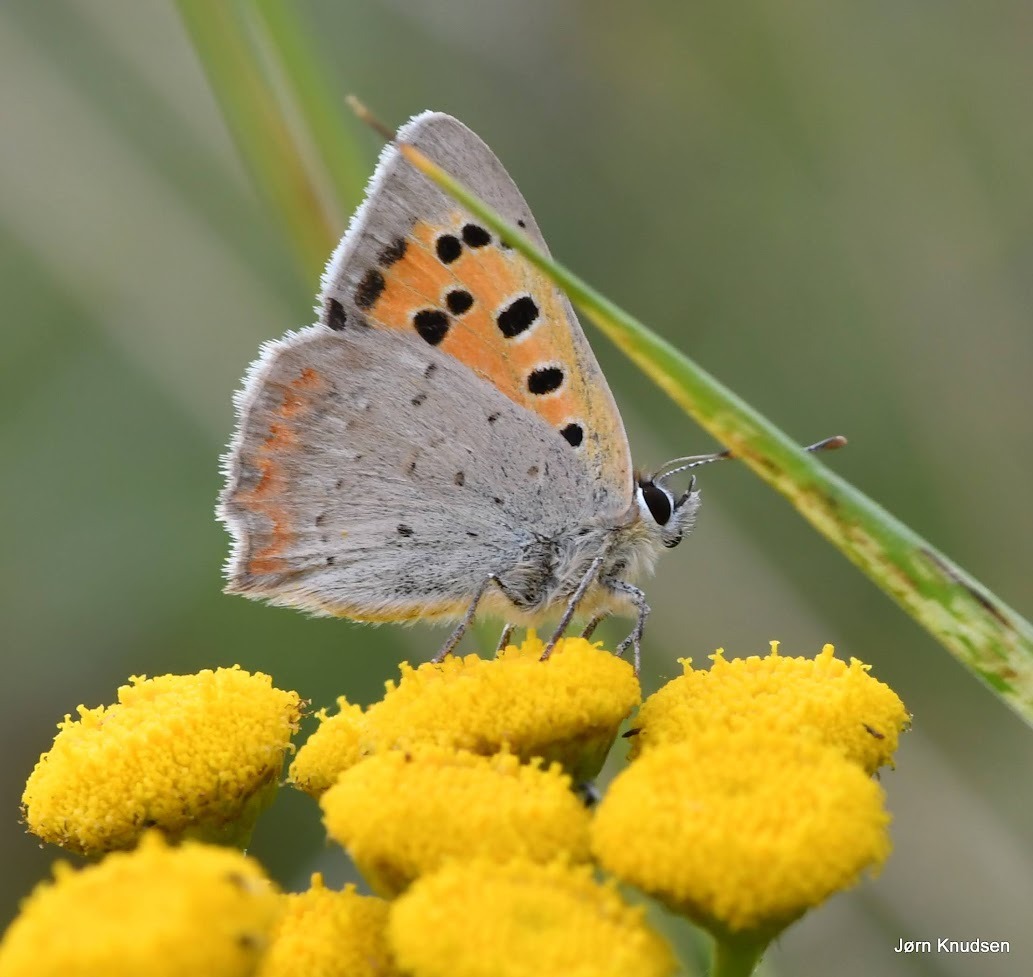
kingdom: Animalia
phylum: Arthropoda
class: Insecta
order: Lepidoptera
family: Lycaenidae
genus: Lycaena
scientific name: Lycaena phlaeas
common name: Lille ildfugl
